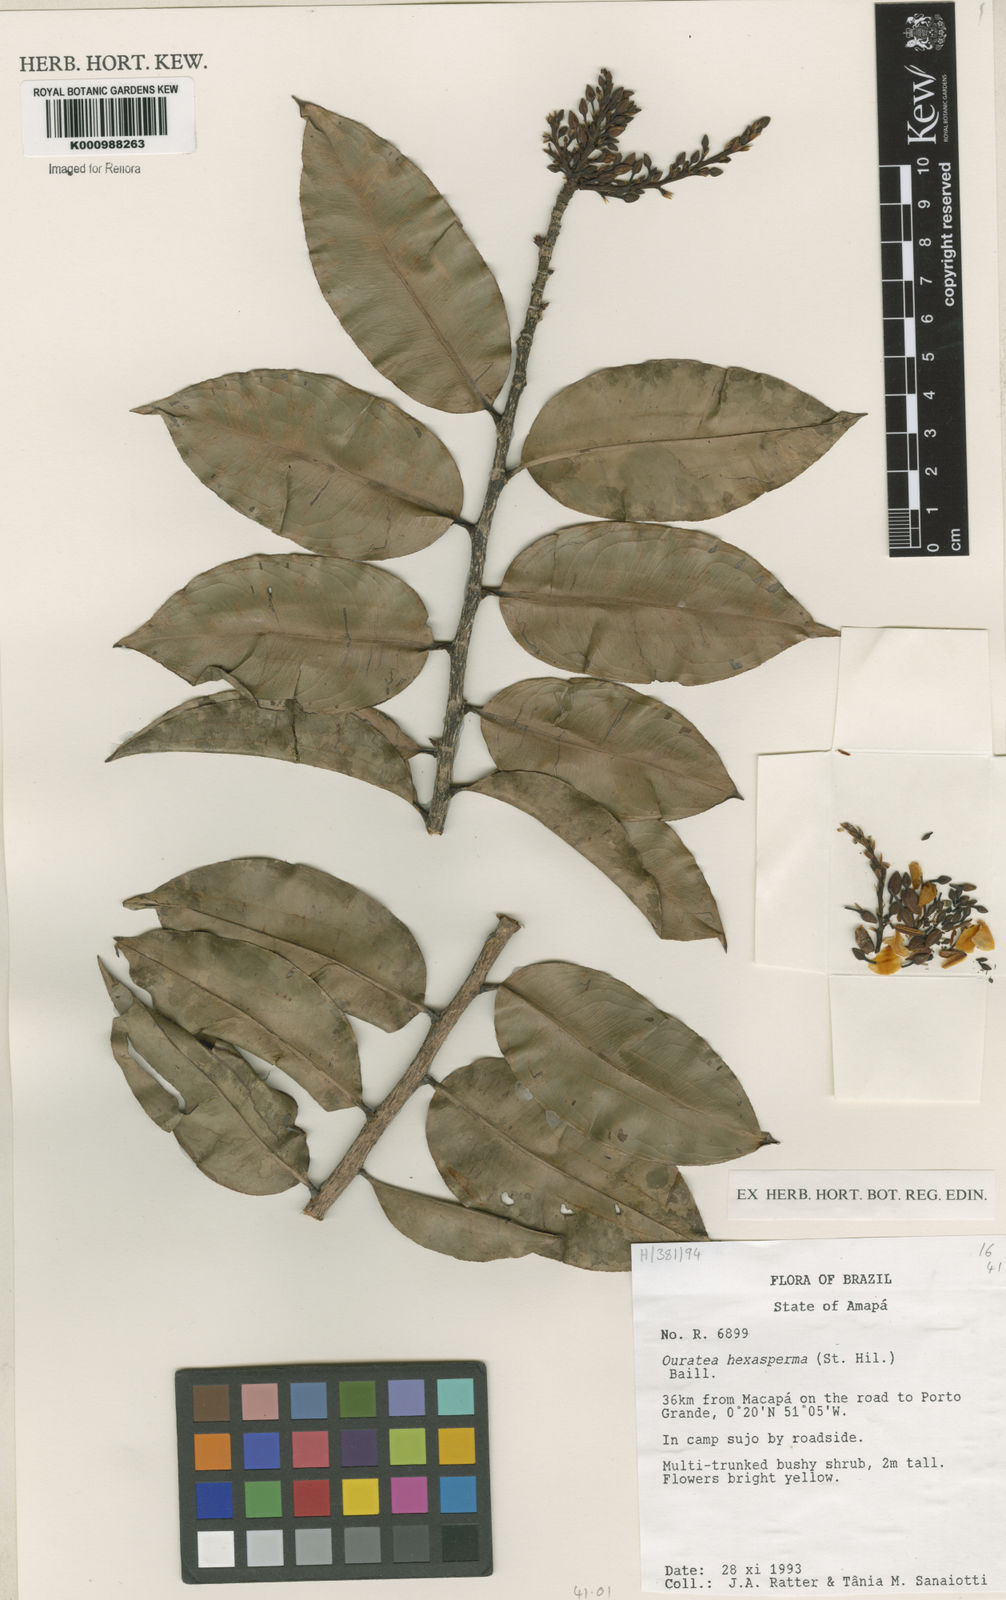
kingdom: Plantae
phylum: Tracheophyta
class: Magnoliopsida
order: Malpighiales
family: Ochnaceae
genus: Ouratea
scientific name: Ouratea hexasperma
